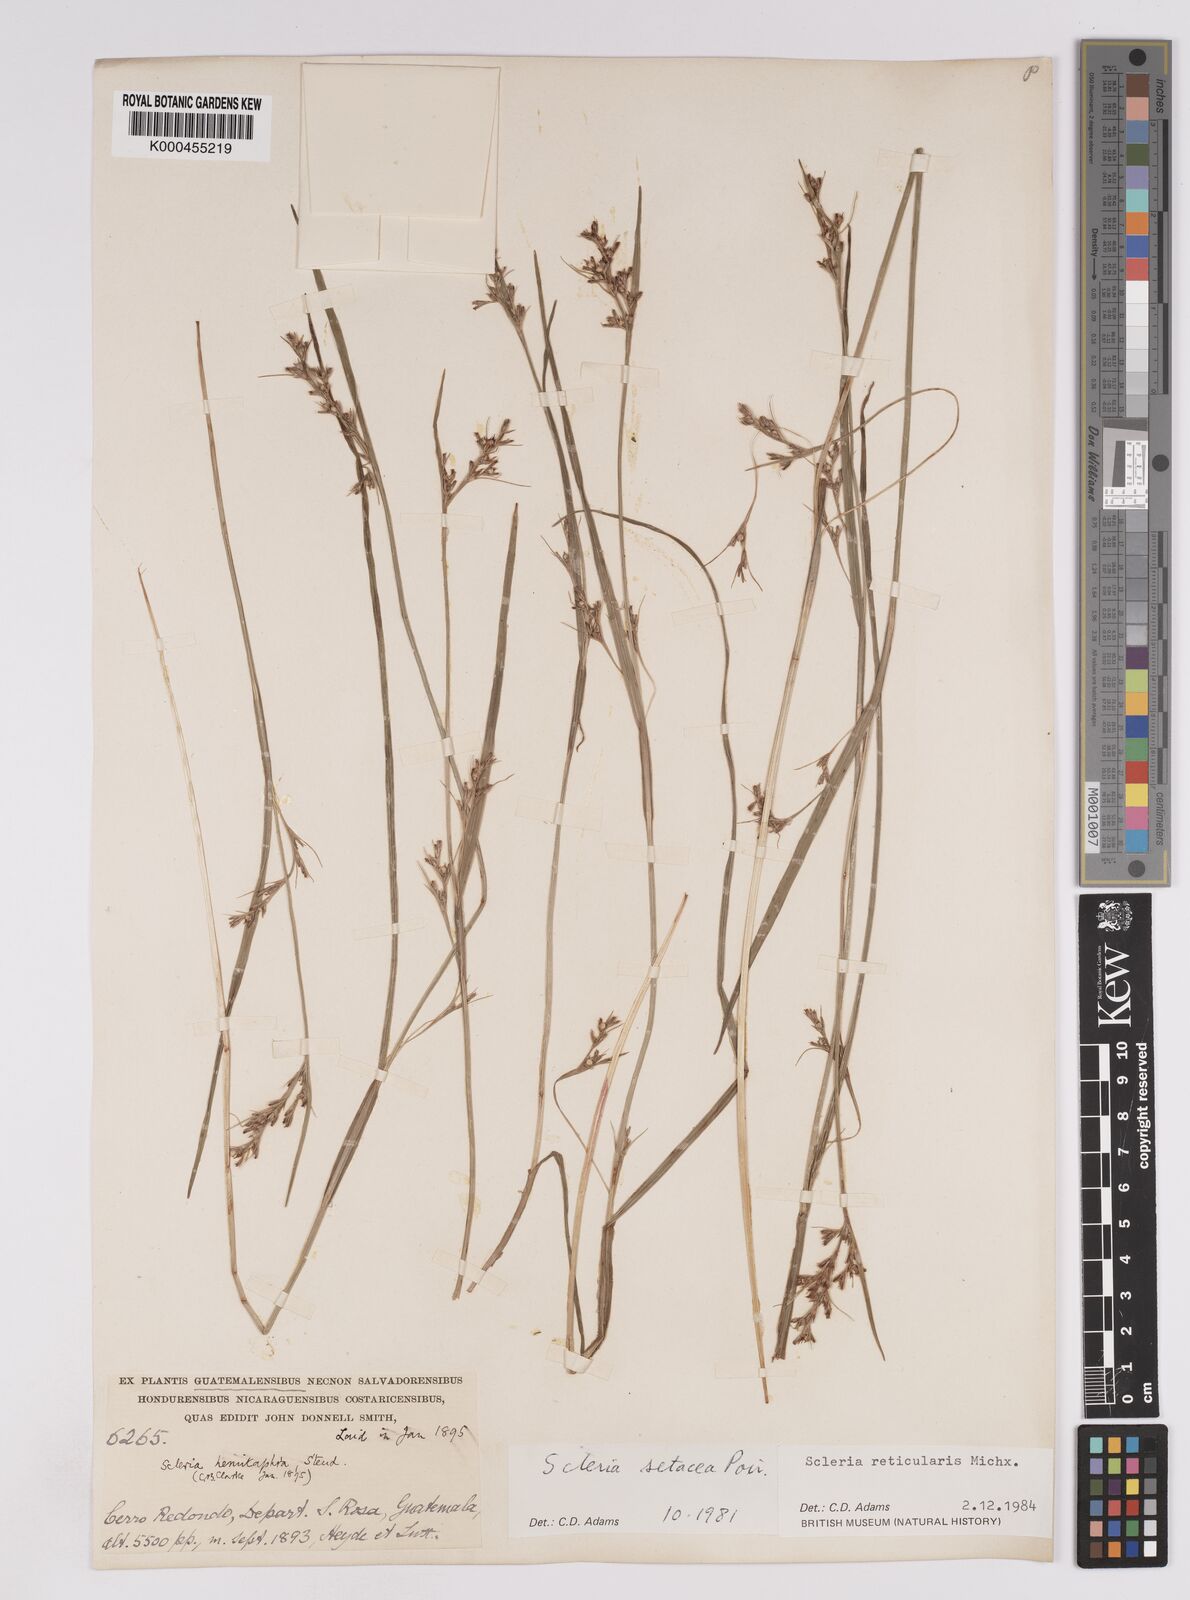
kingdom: Plantae
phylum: Tracheophyta
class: Liliopsida
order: Poales
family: Cyperaceae
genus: Scleria
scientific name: Scleria
